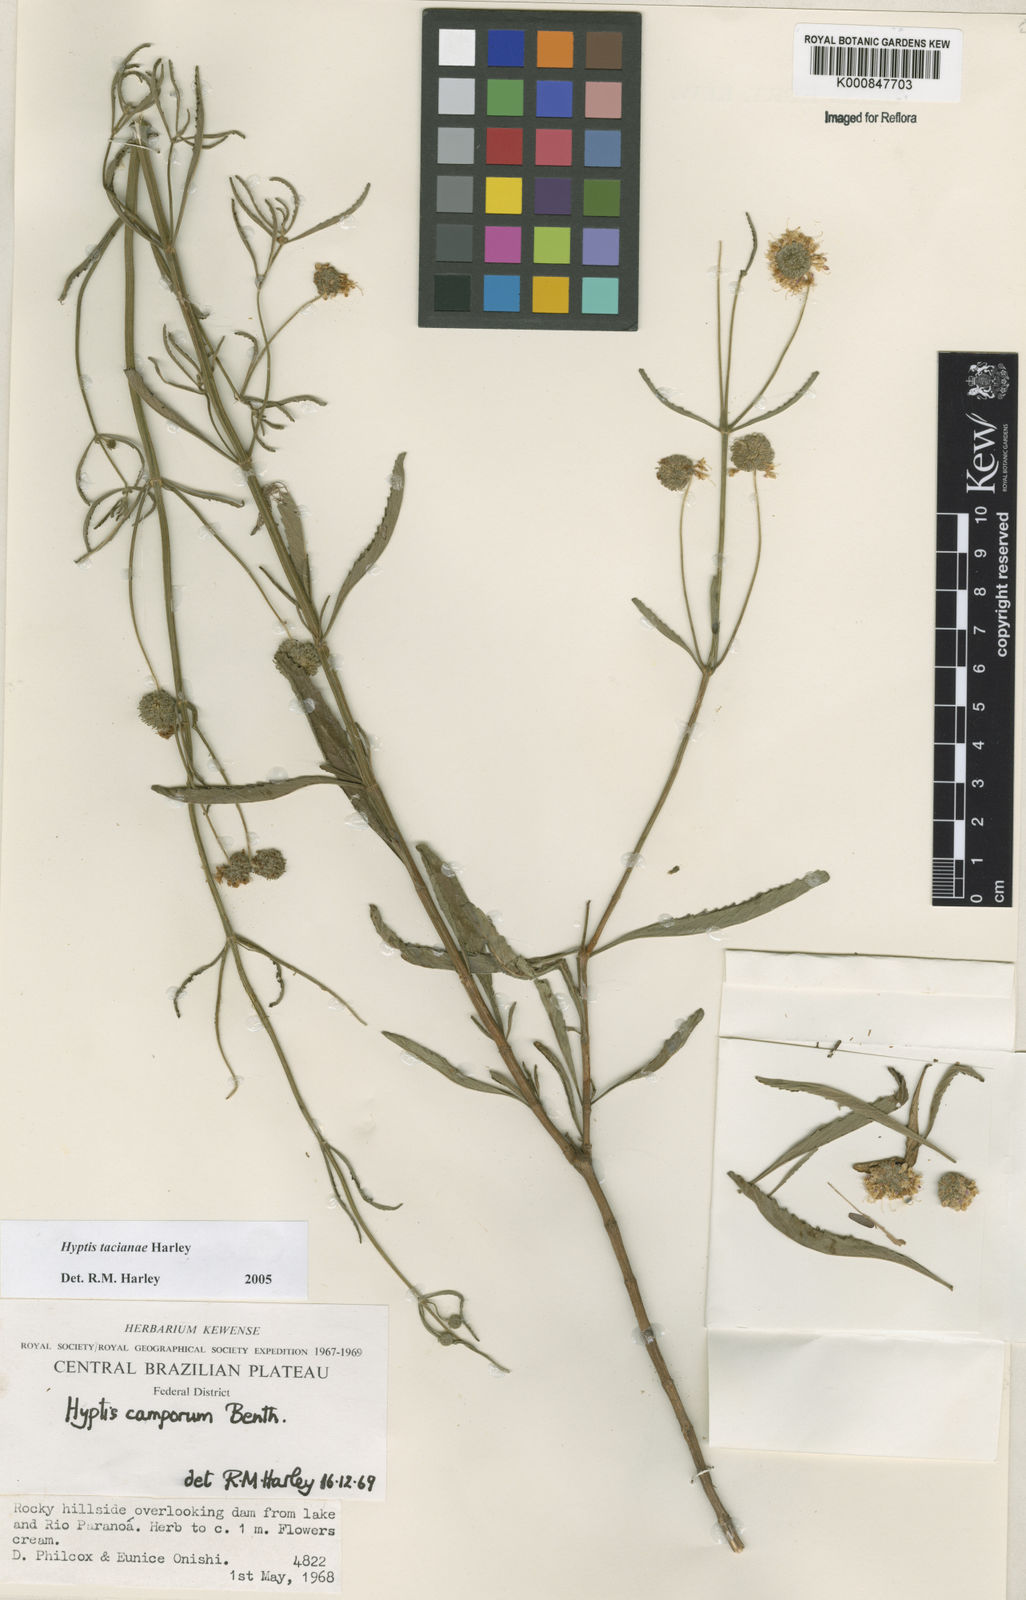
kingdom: Plantae
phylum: Tracheophyta
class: Magnoliopsida
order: Lamiales
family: Lamiaceae
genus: Cyanocephalus
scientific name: Cyanocephalus tacianae
